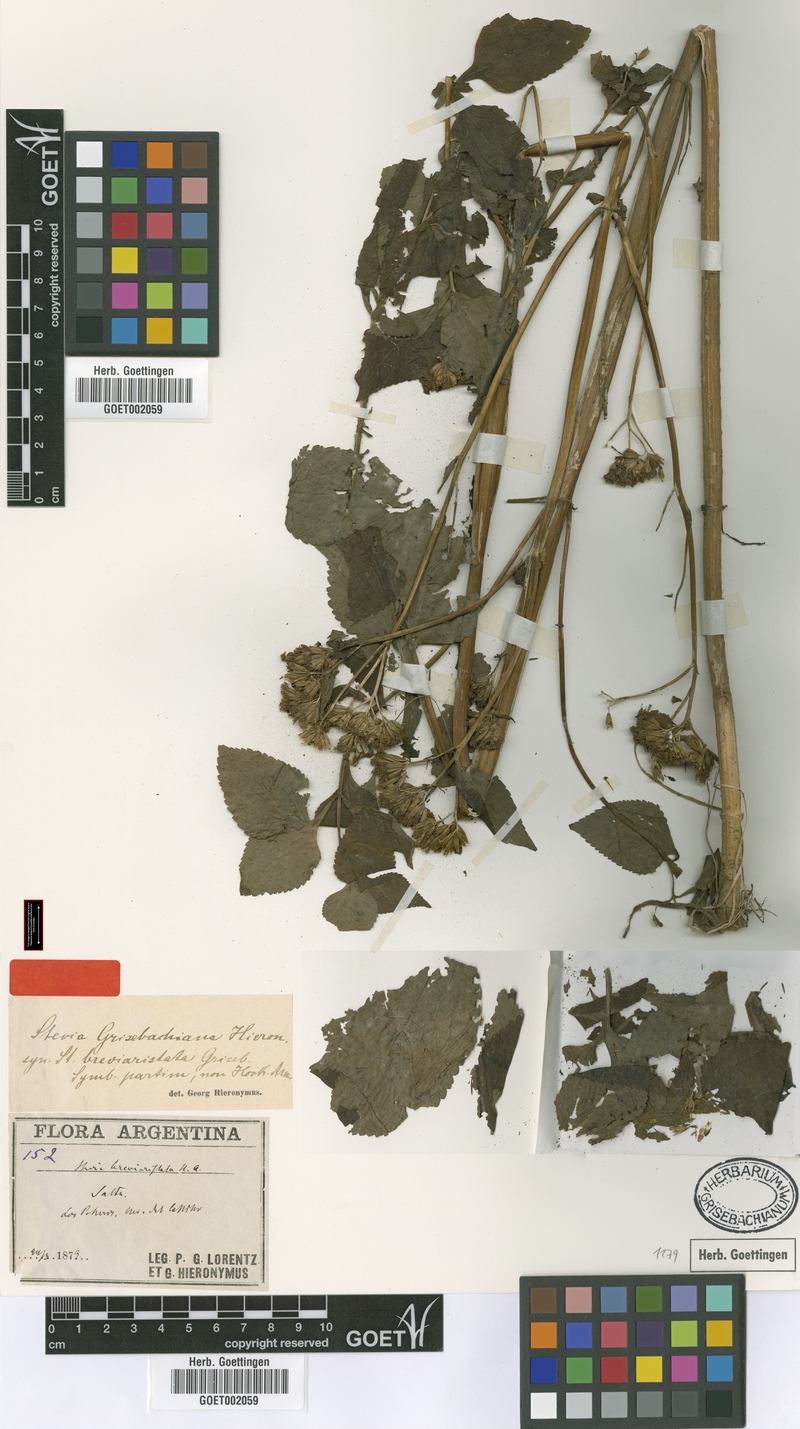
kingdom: Plantae
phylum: Tracheophyta
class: Magnoliopsida
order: Asterales
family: Asteraceae
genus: Stevia
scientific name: Stevia grisebachiana
